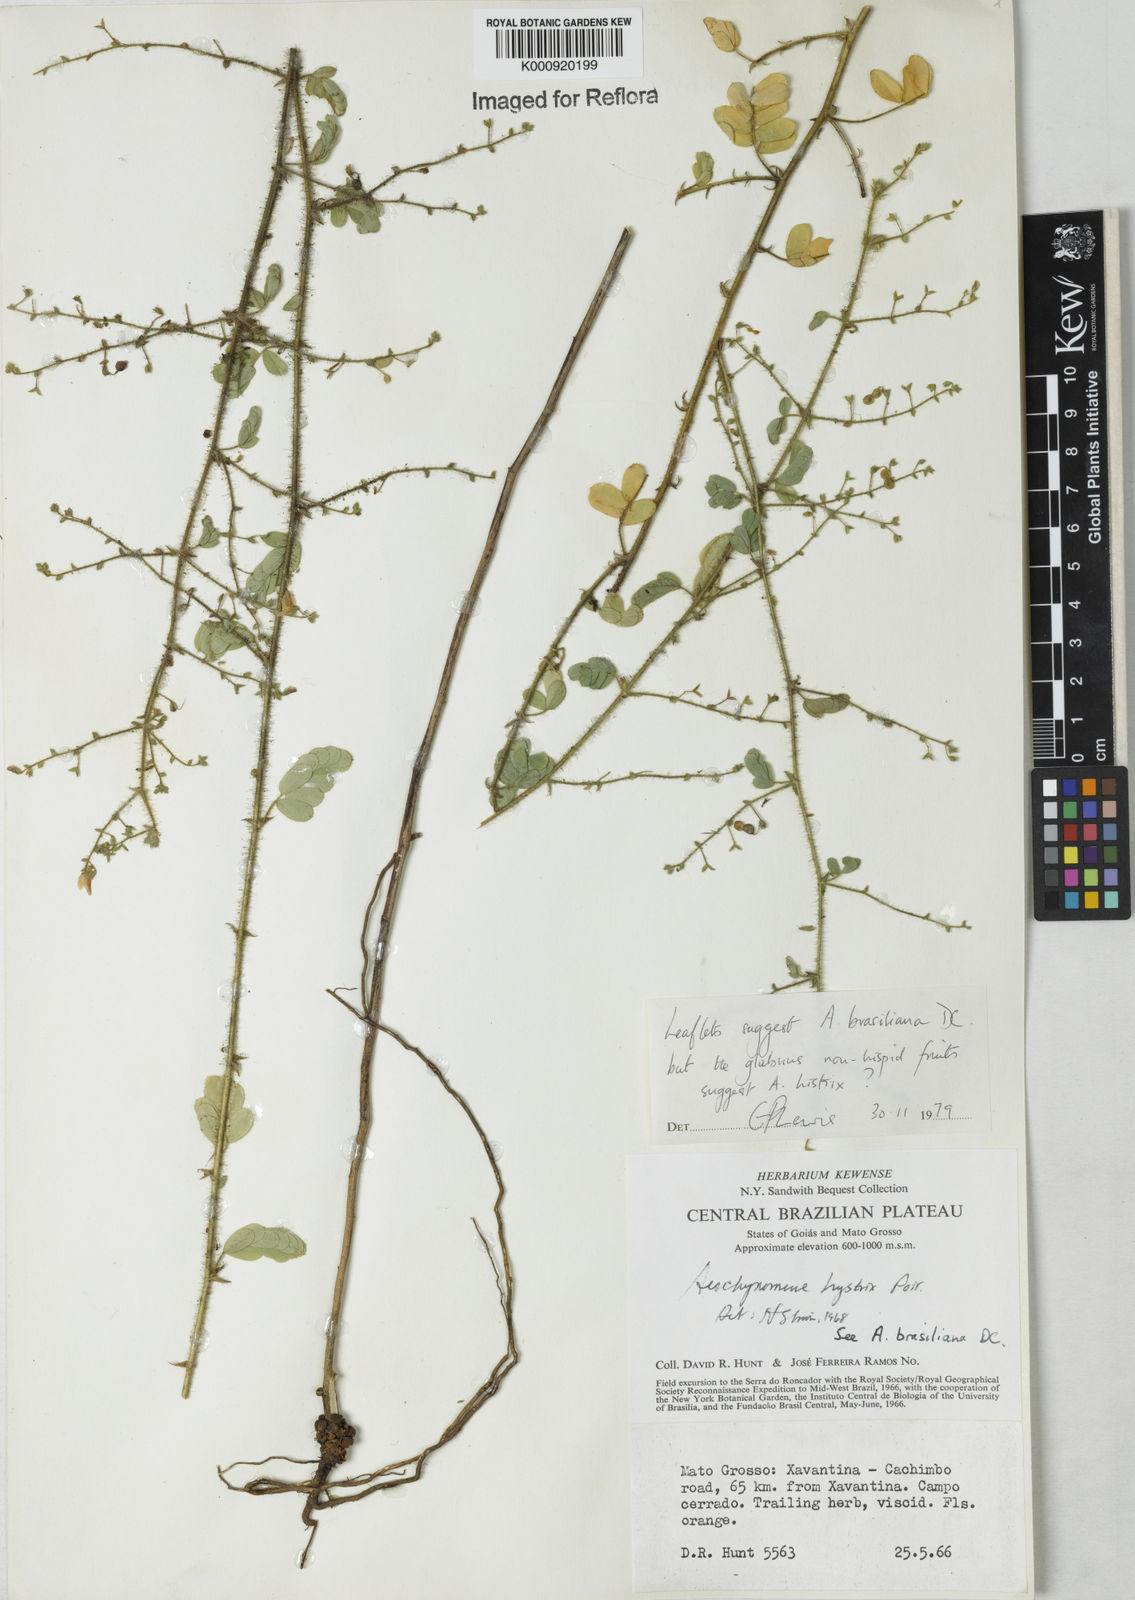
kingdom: Plantae
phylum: Tracheophyta
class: Magnoliopsida
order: Fabales
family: Fabaceae
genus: Ctenodon
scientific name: Ctenodon brasilianus
